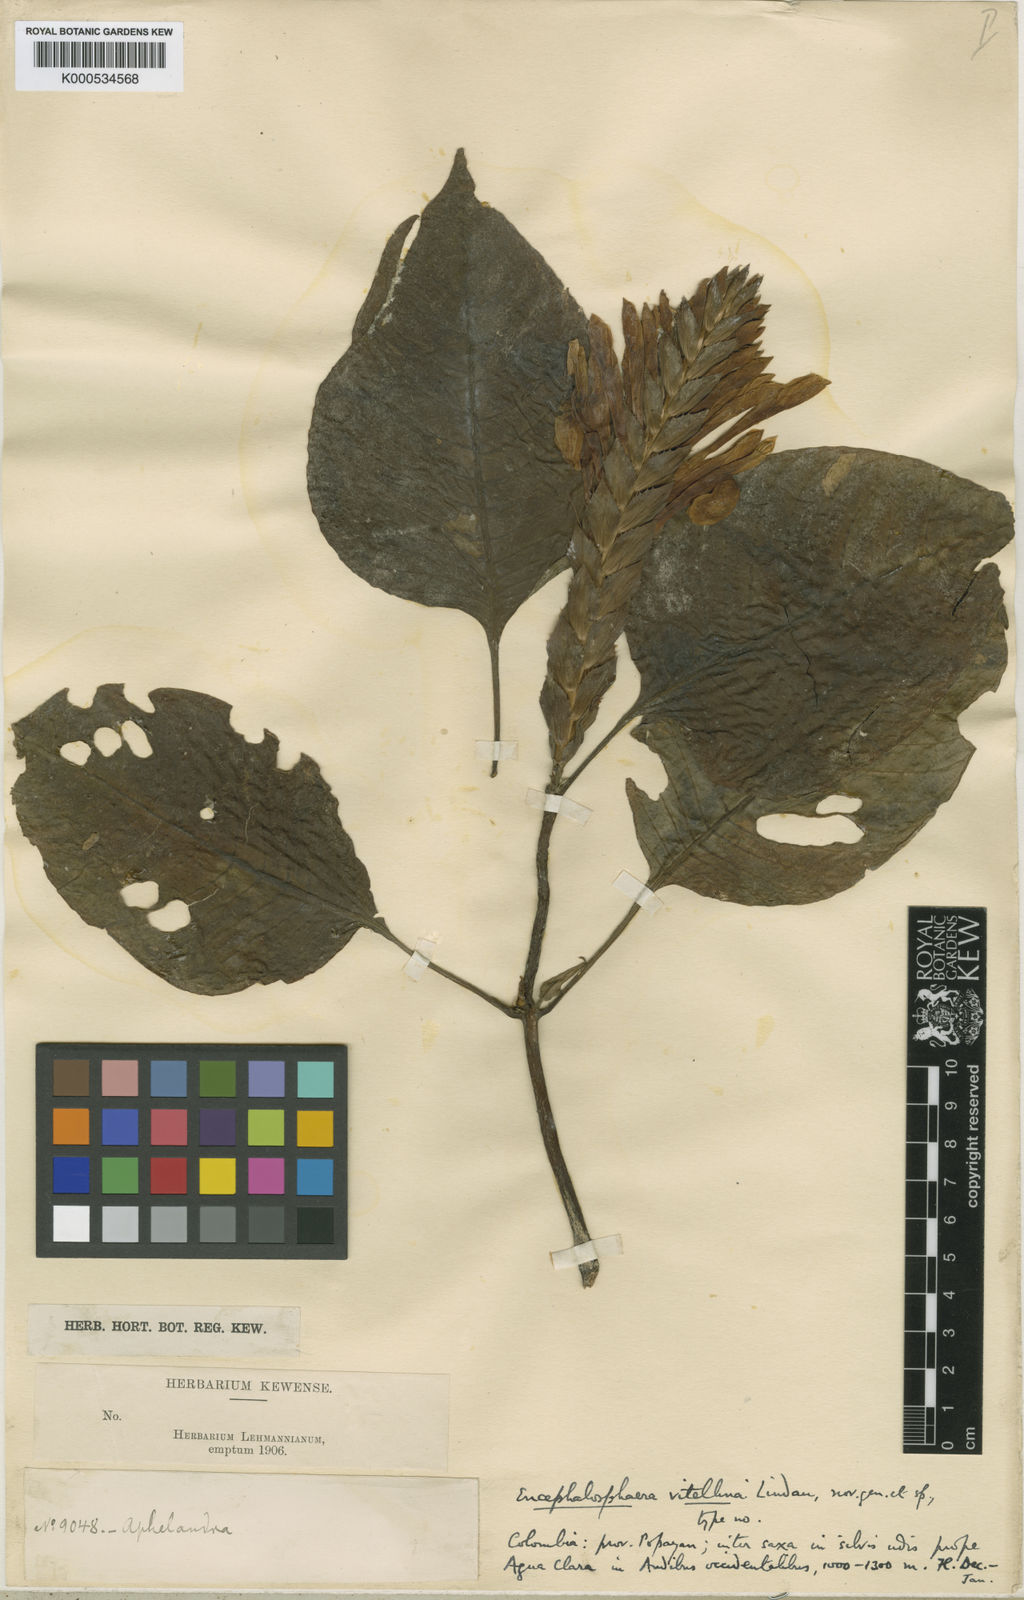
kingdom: Plantae
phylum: Tracheophyta
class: Magnoliopsida
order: Lamiales
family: Acanthaceae
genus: Aphelandra
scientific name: Aphelandra vitellina
